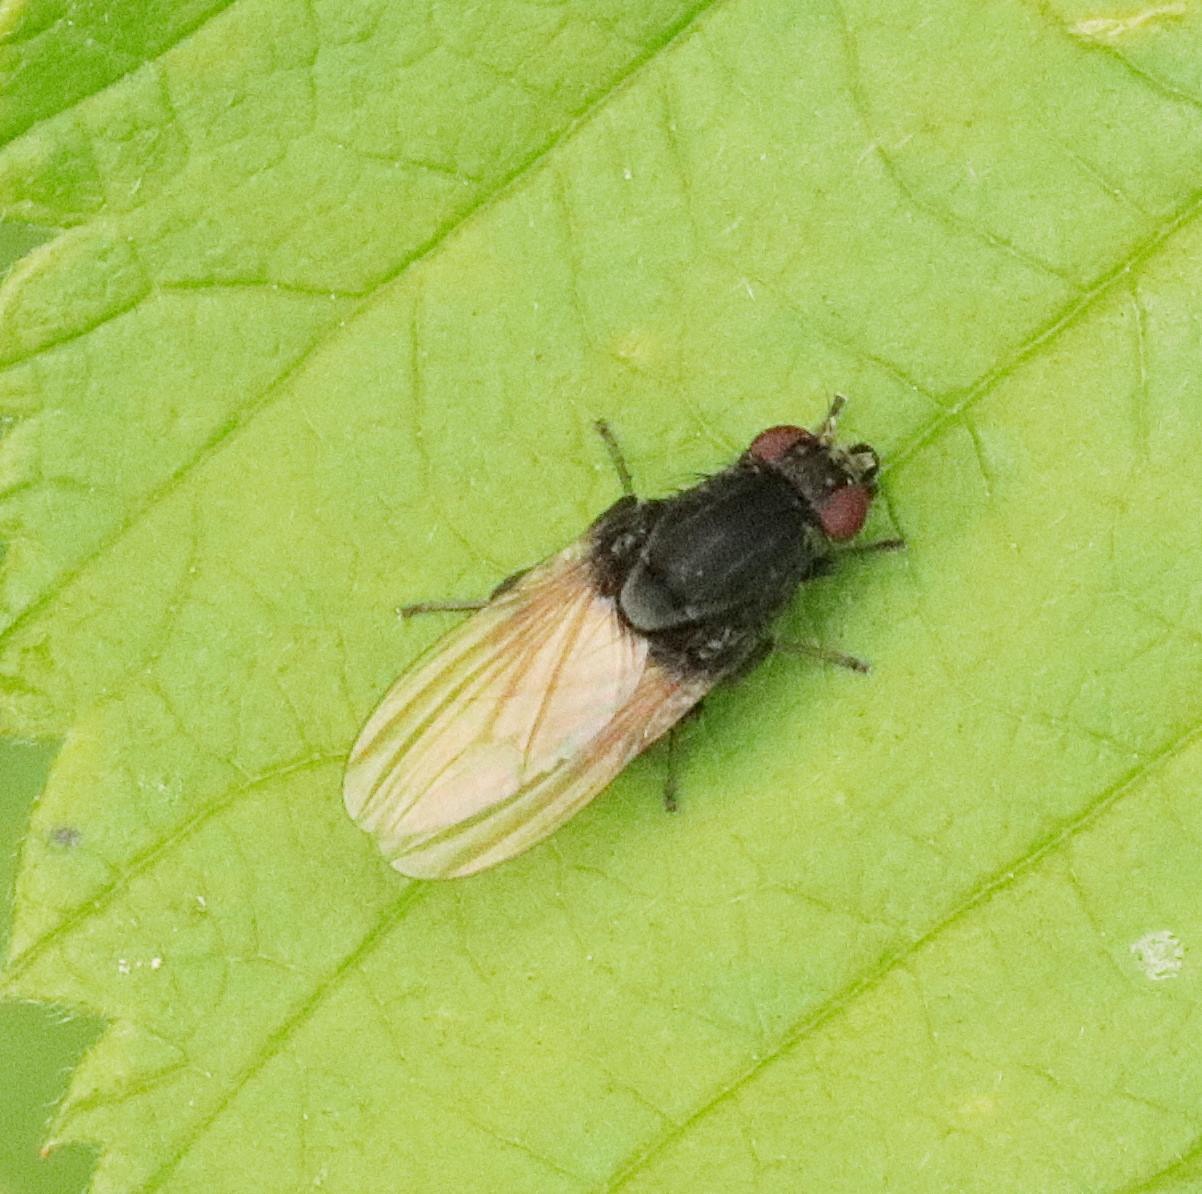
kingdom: Animalia
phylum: Arthropoda
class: Insecta
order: Diptera
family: Lauxaniidae
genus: Minettia
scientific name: Minettia longipennis
